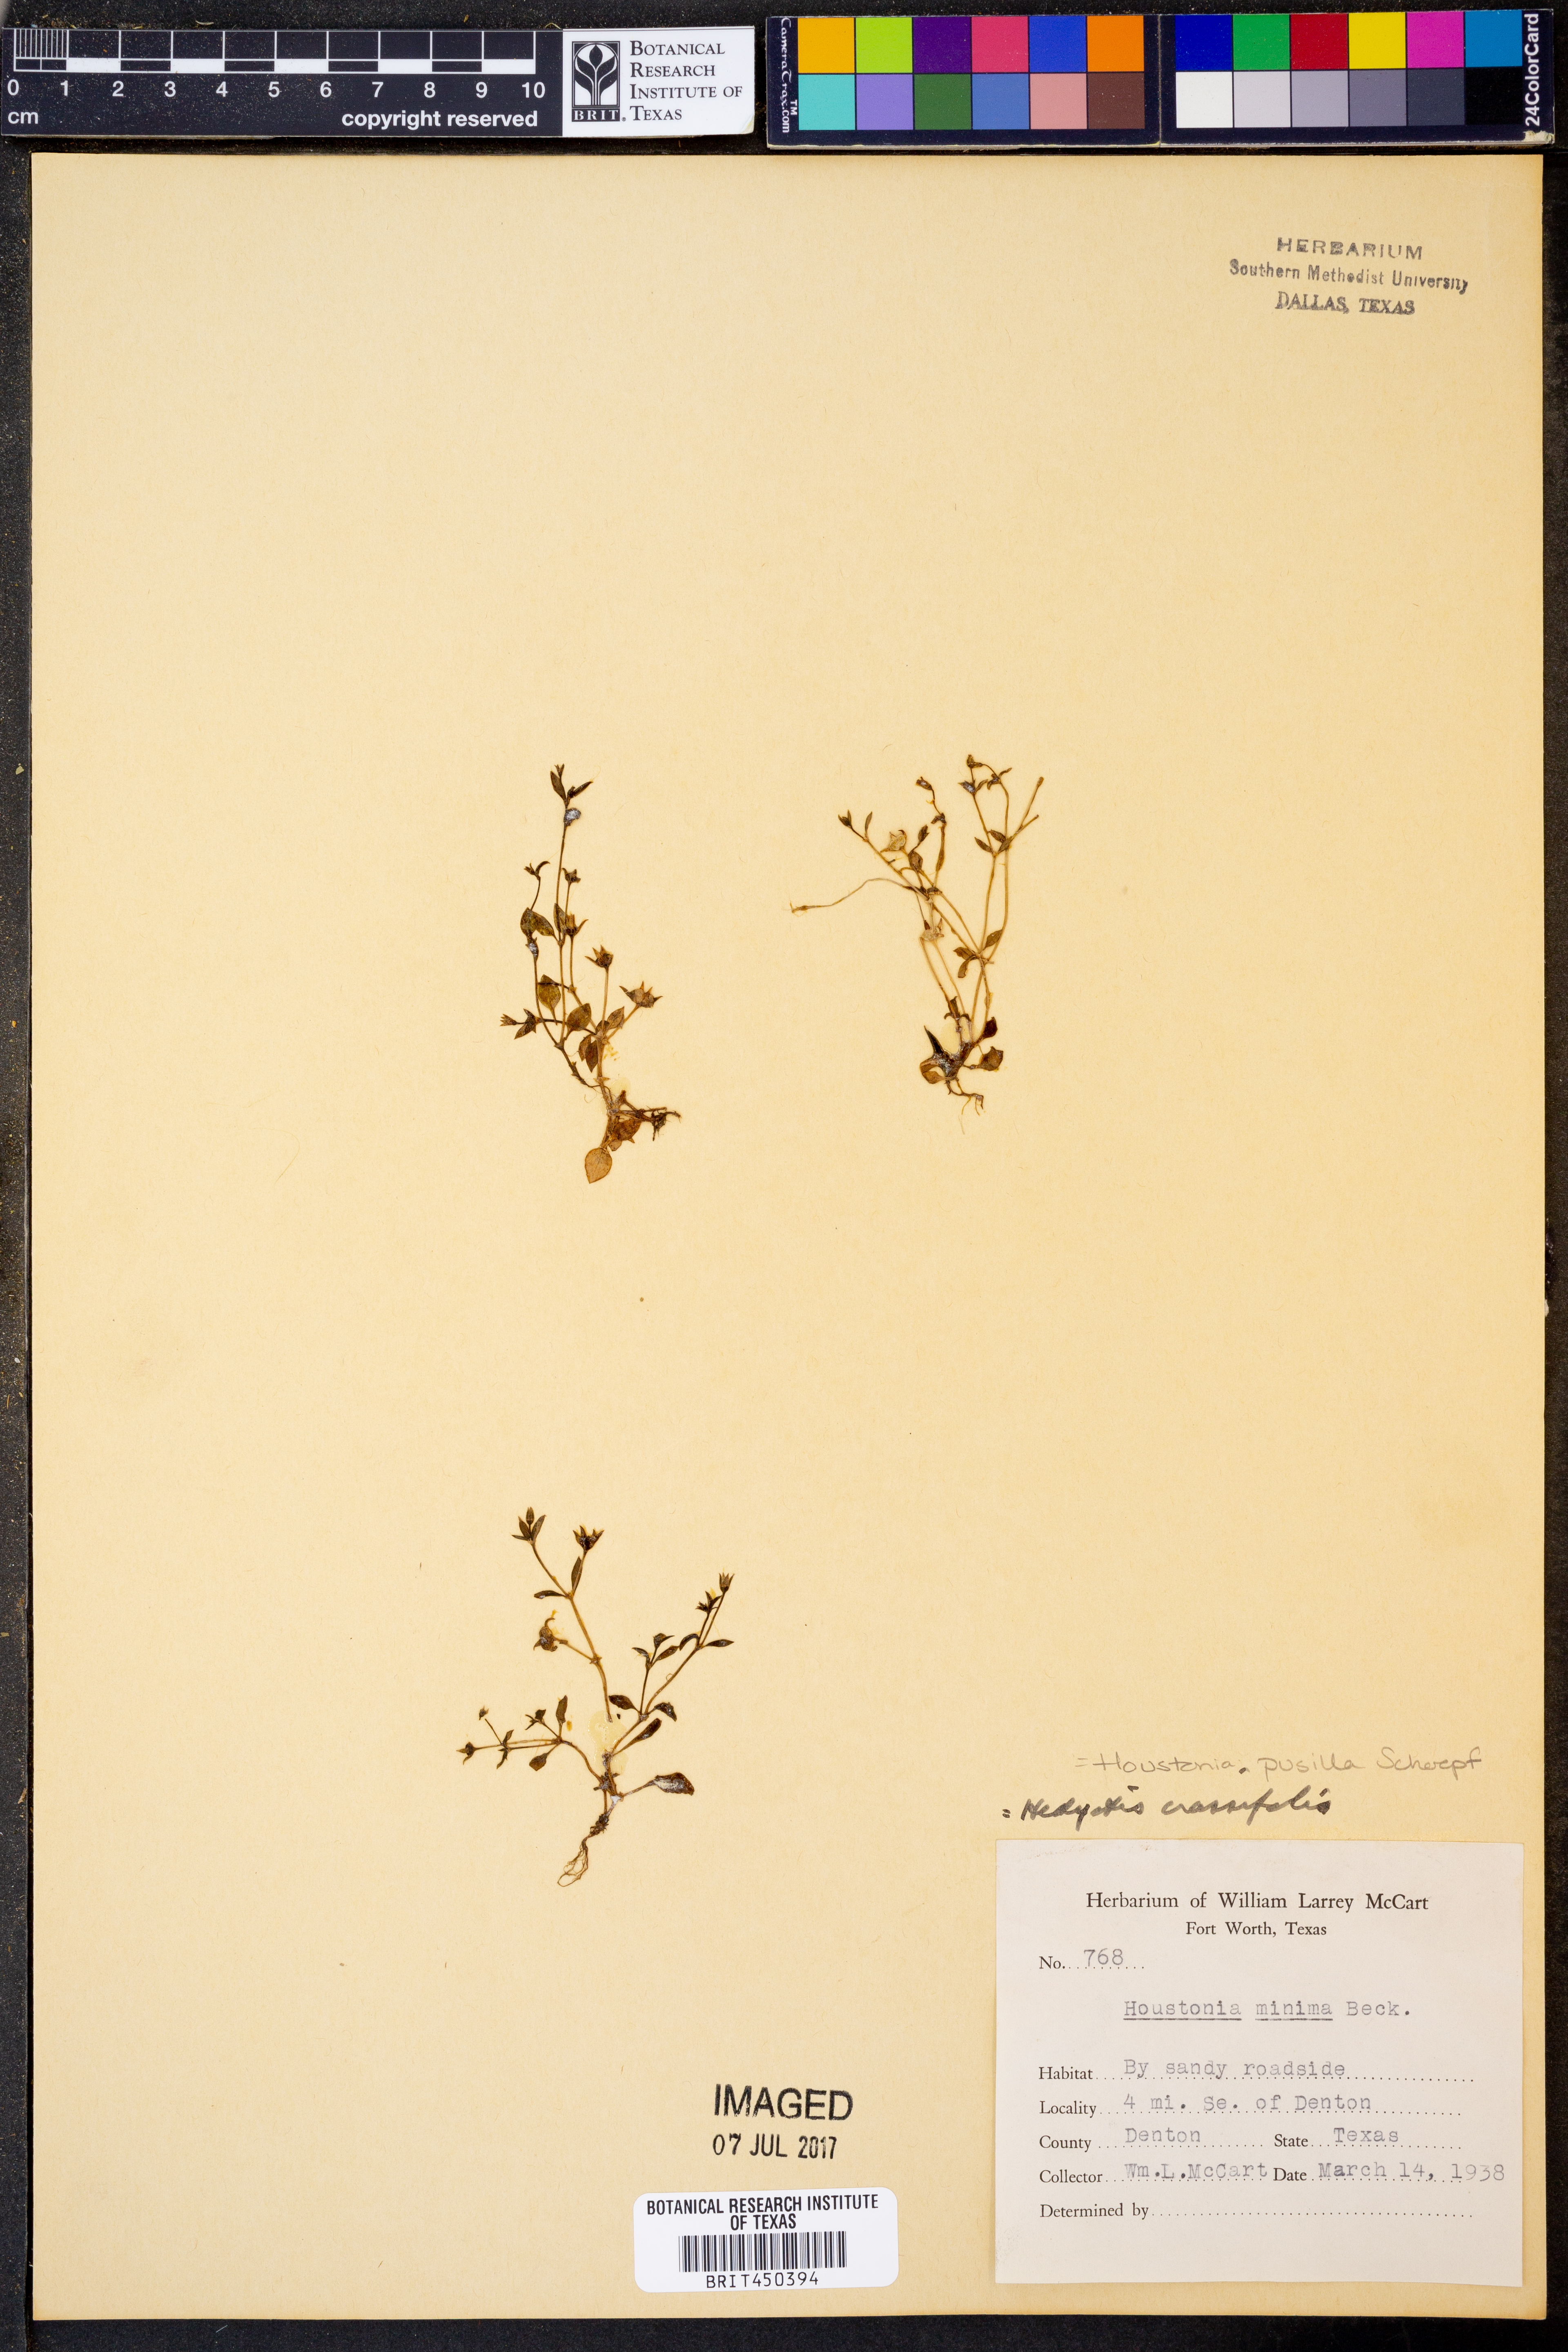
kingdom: Plantae
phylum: Tracheophyta
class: Magnoliopsida
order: Gentianales
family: Rubiaceae
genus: Houstonia
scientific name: Houstonia pusilla
